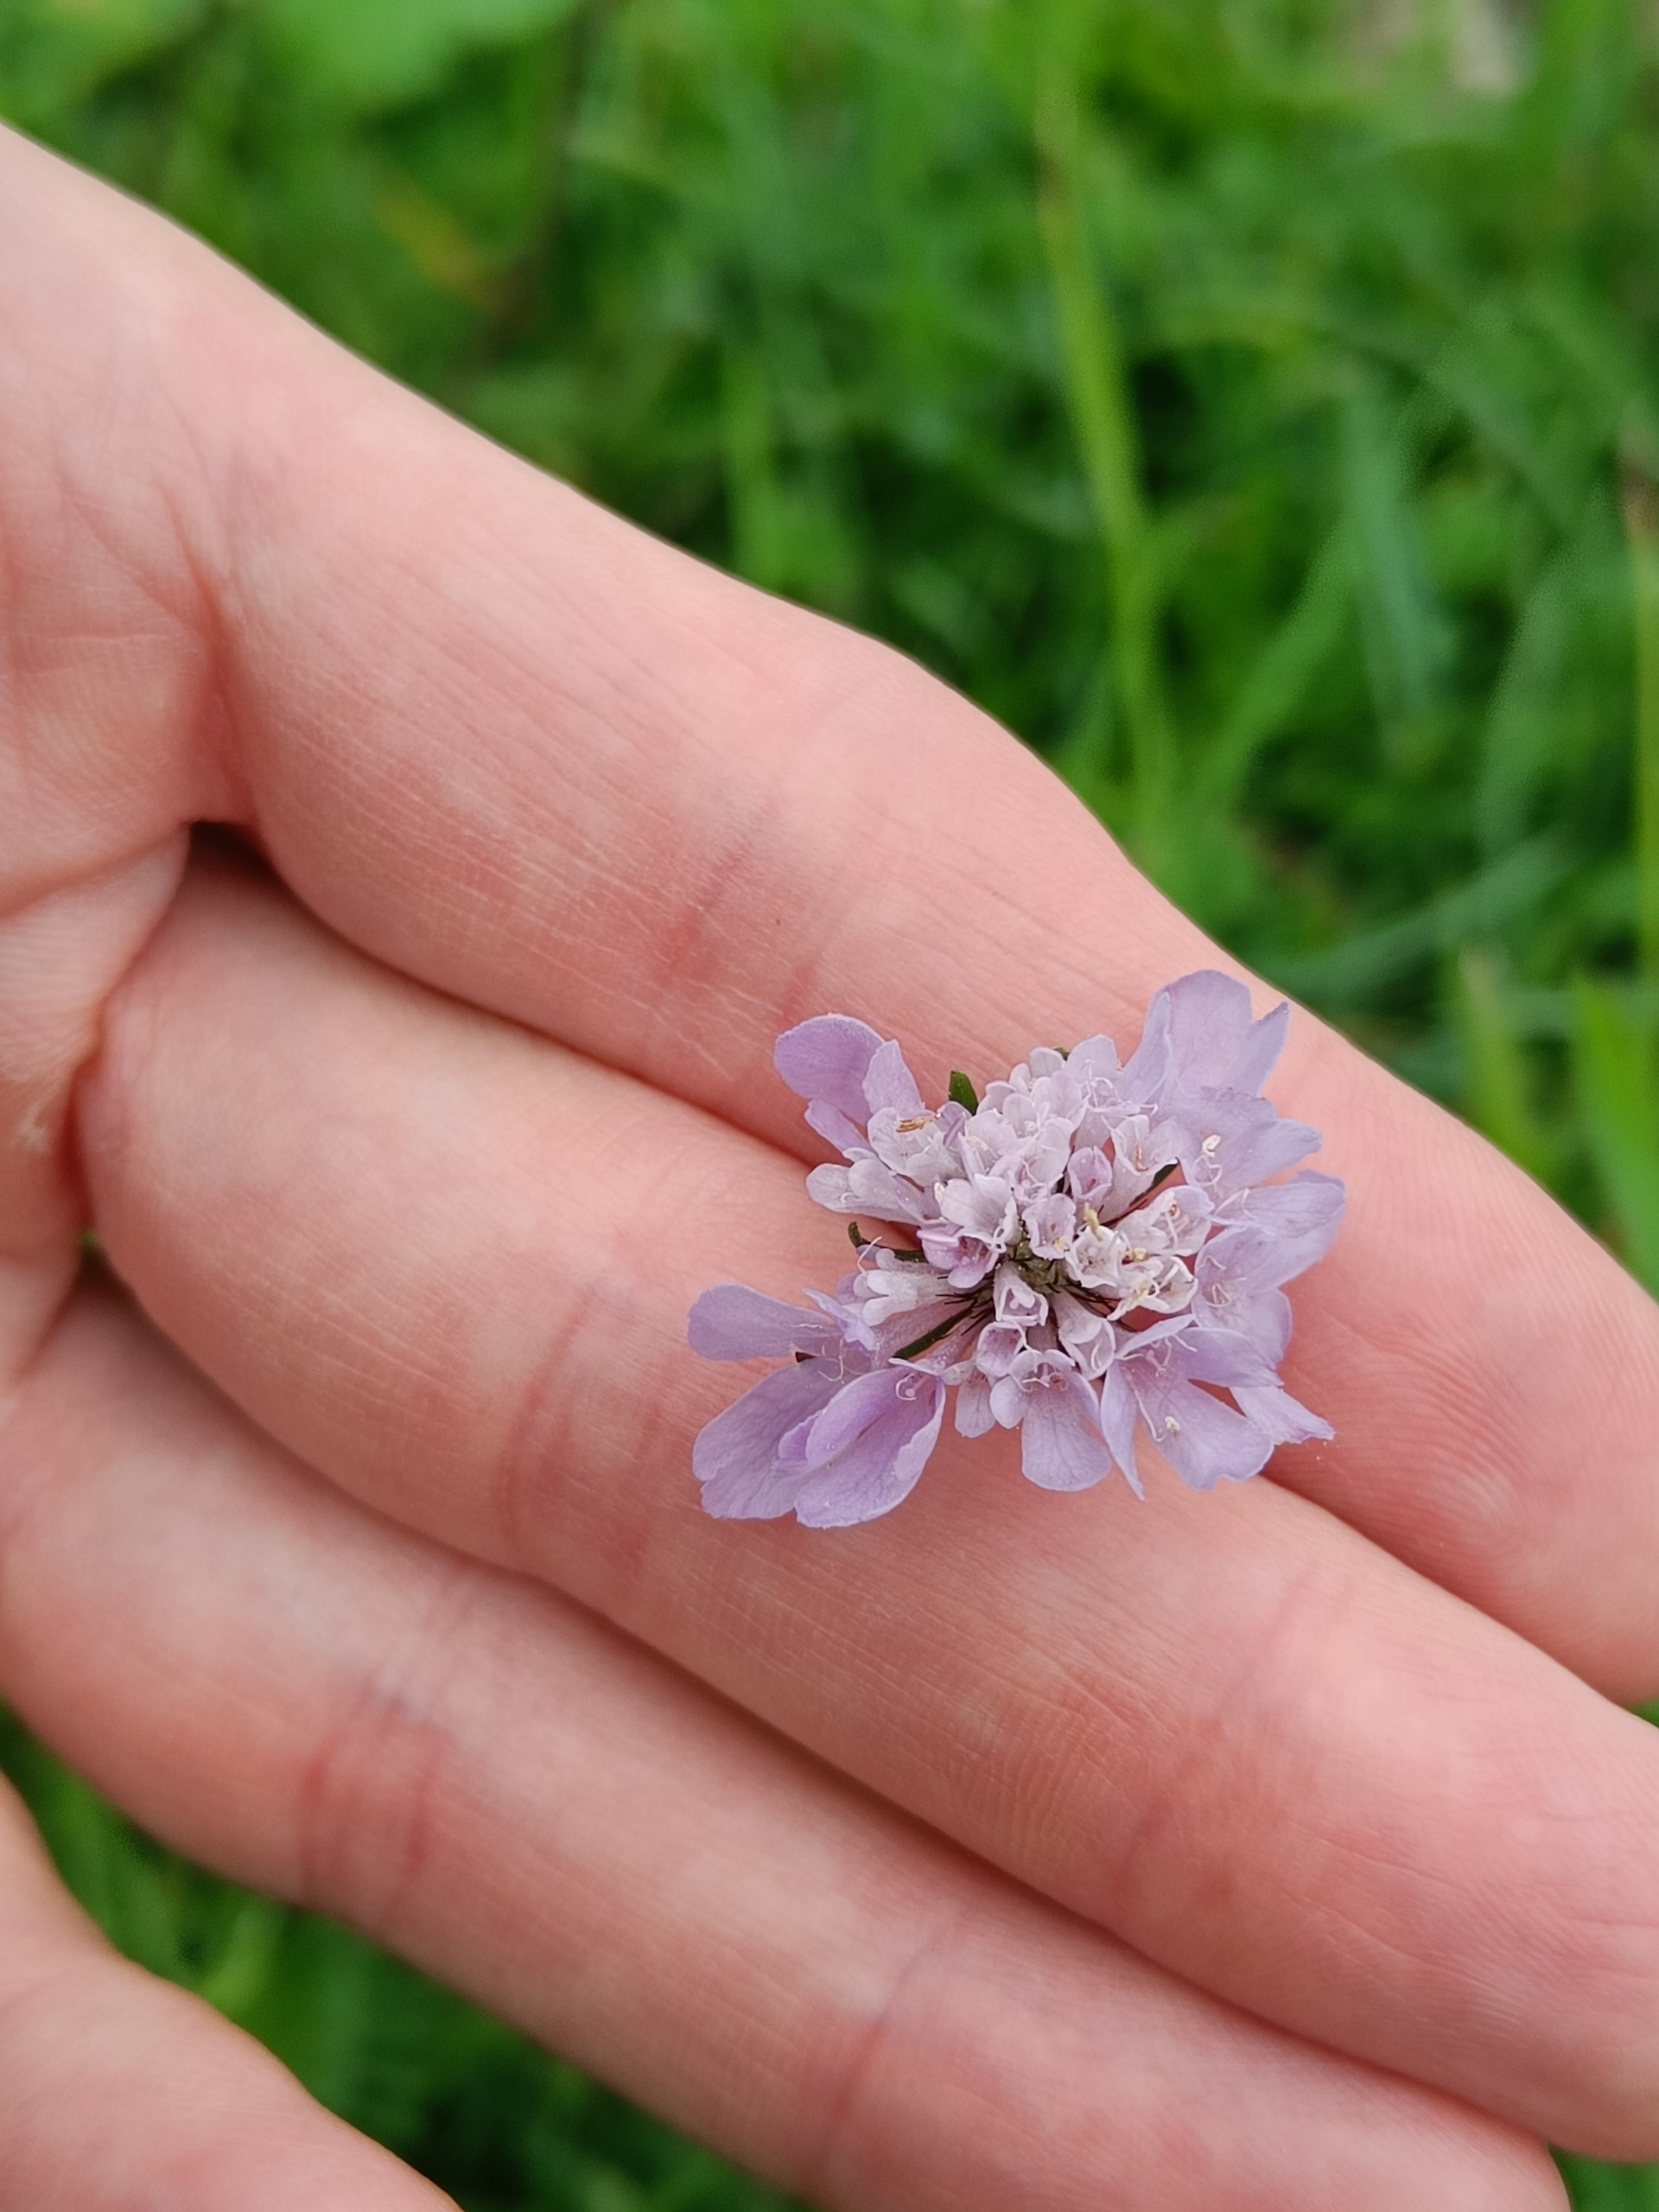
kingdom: Plantae
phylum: Tracheophyta
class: Magnoliopsida
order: Dipsacales
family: Caprifoliaceae
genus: Scabiosa
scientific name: Scabiosa columbaria
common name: Due-skabiose
